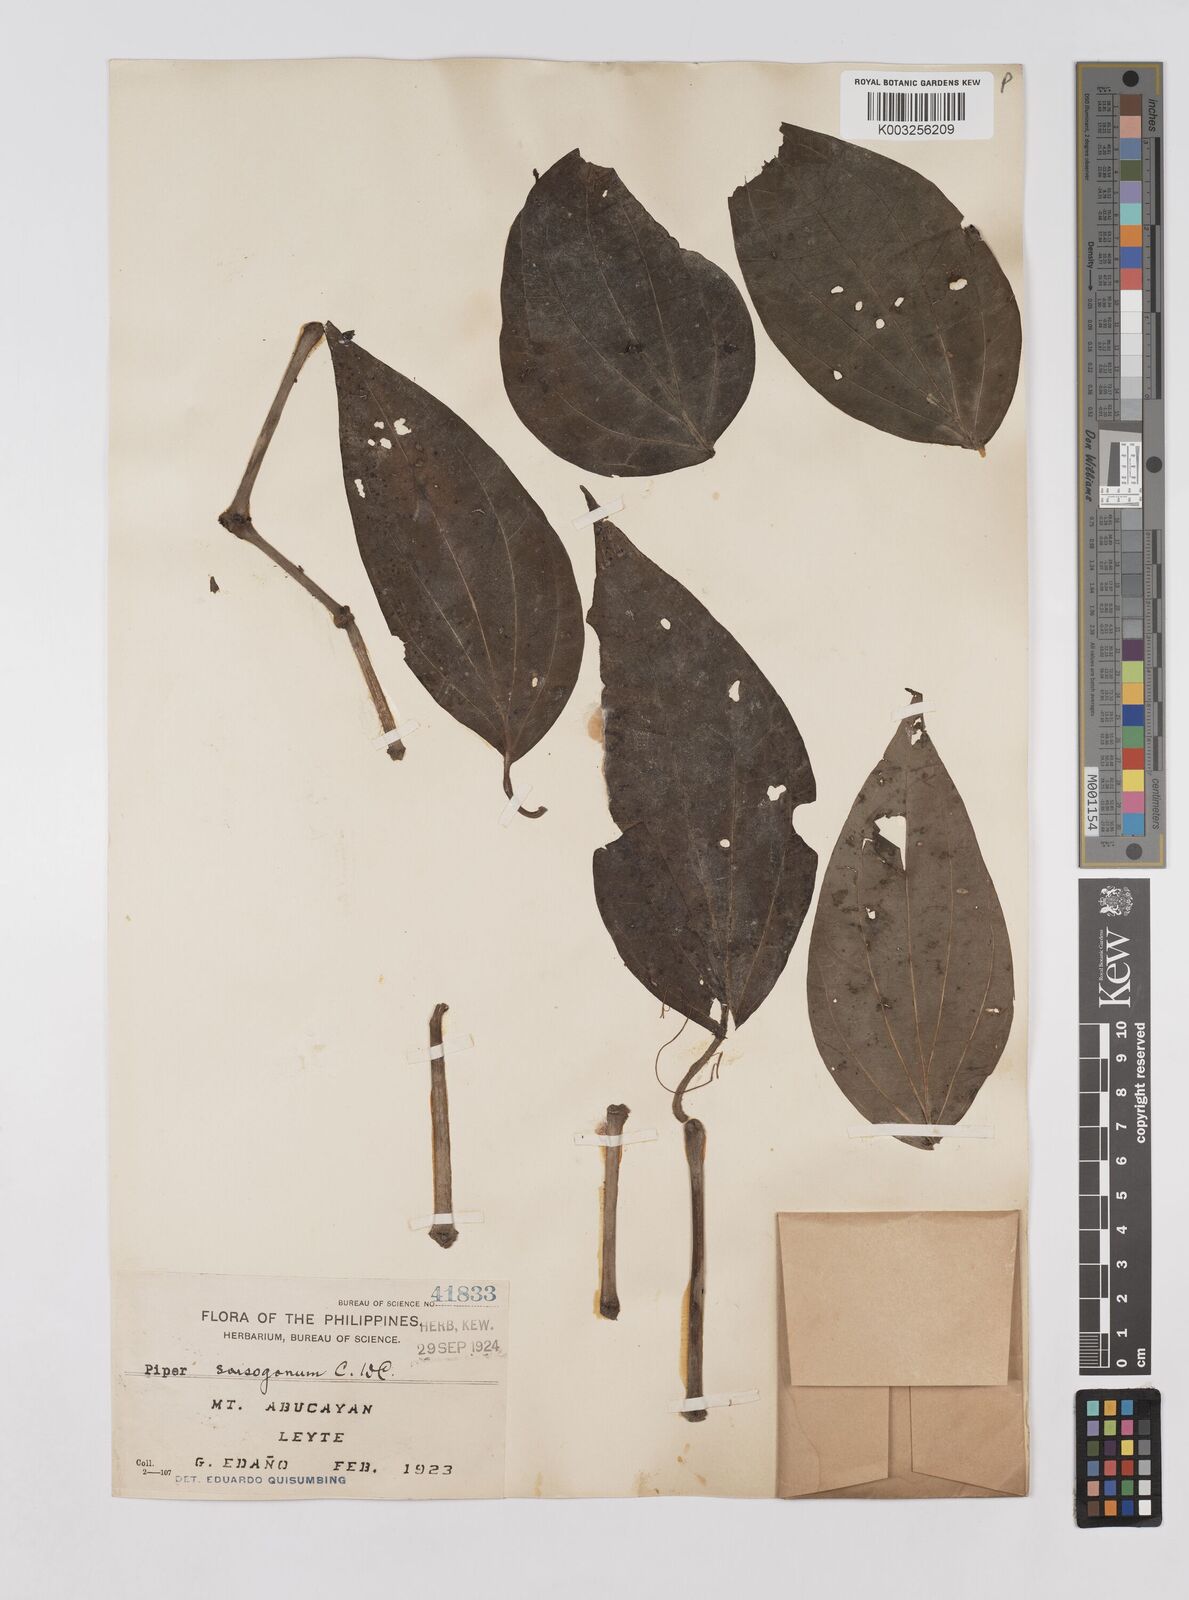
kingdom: Plantae
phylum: Tracheophyta
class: Magnoliopsida
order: Piperales
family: Piperaceae
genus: Piper
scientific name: Piper sorsogonum
